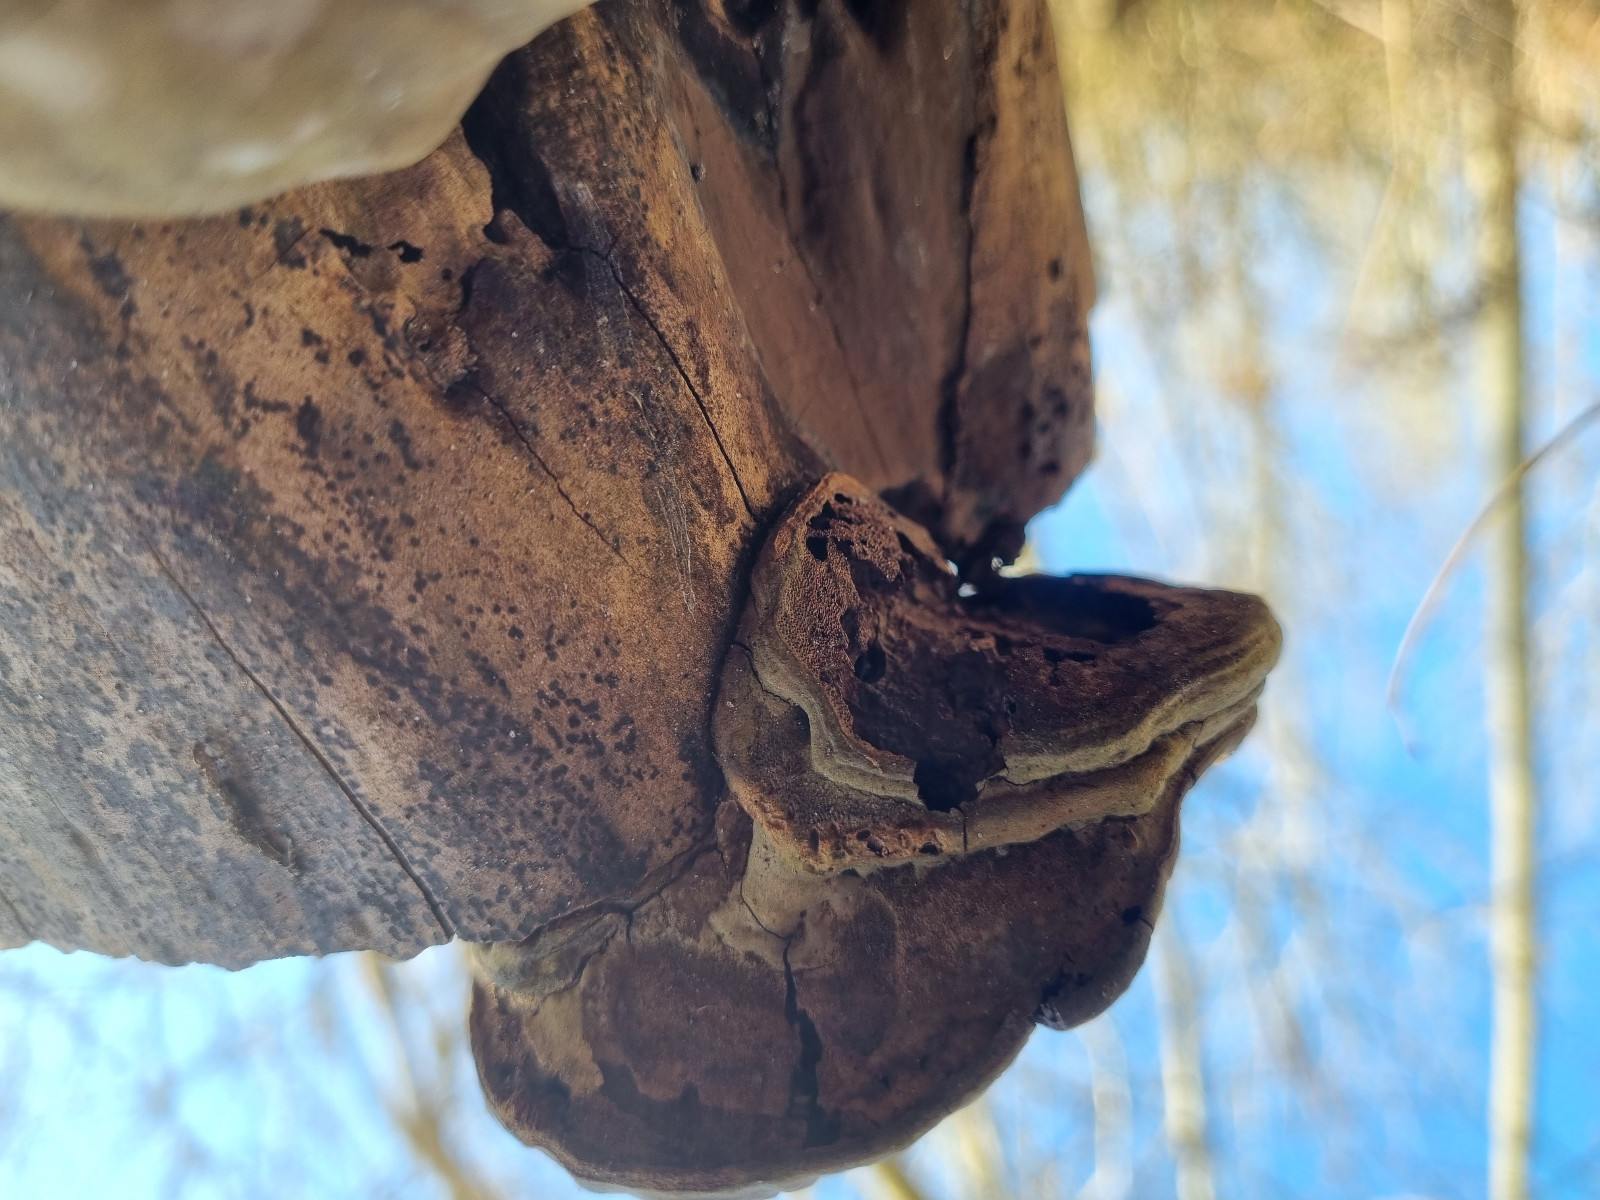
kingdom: Fungi
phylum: Basidiomycota
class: Agaricomycetes
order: Polyporales
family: Polyporaceae
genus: Ganoderma
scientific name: Ganoderma applanatum
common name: flad lakporesvamp
